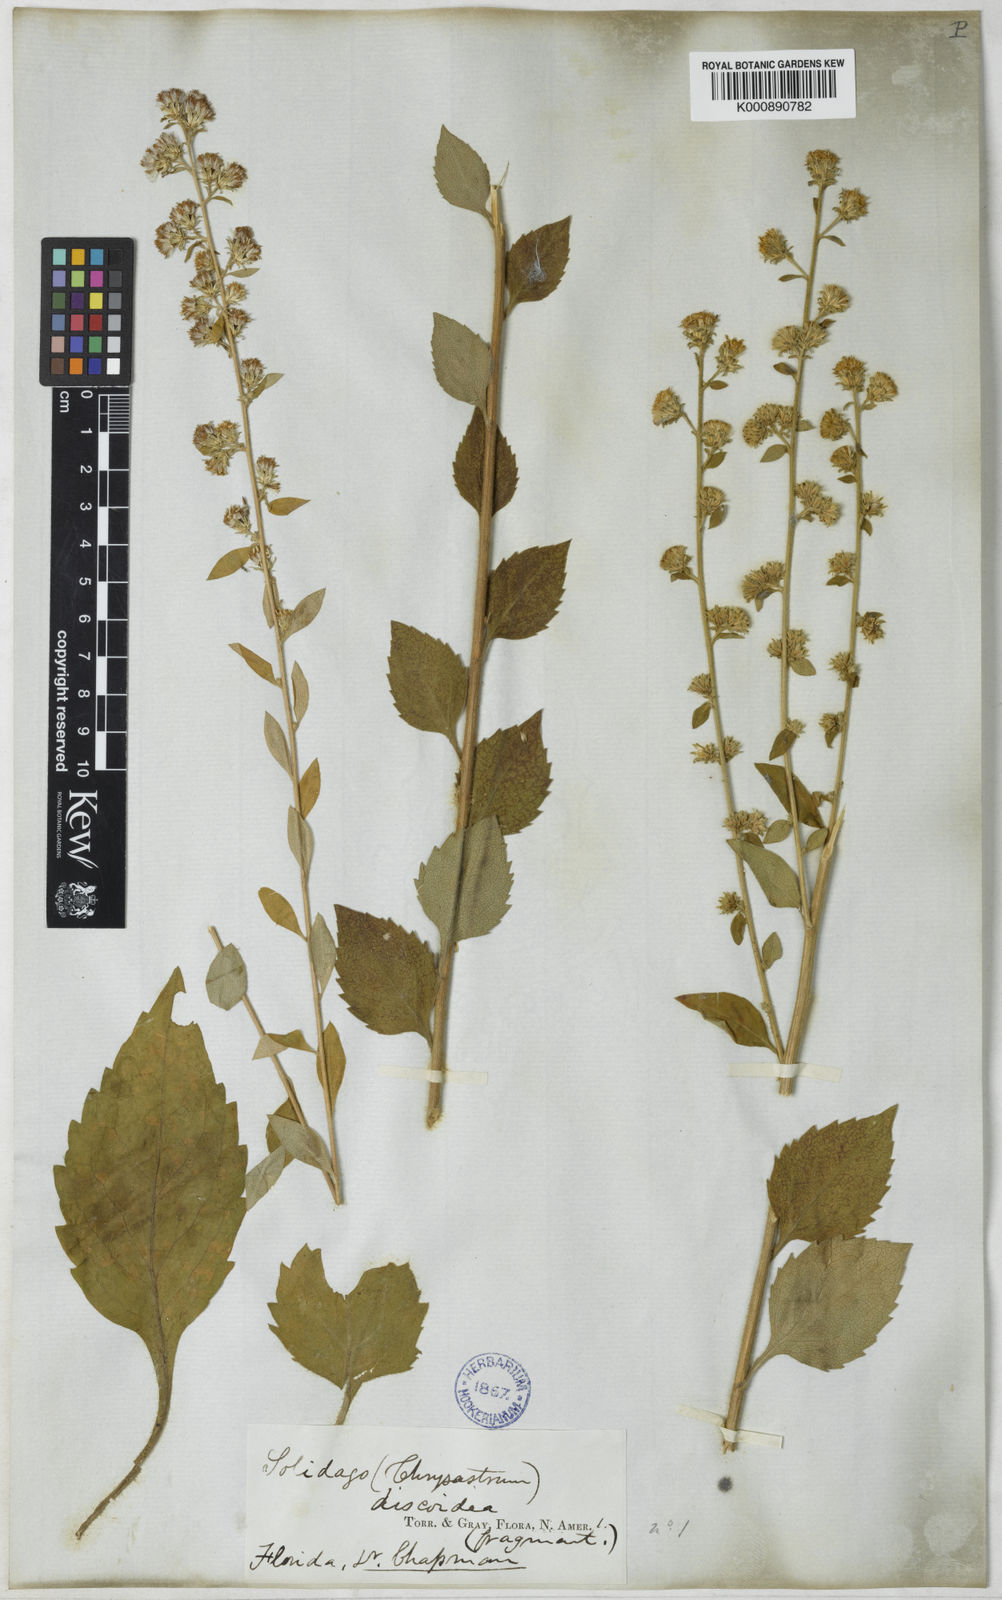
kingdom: Plantae
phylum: Tracheophyta
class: Magnoliopsida
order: Asterales
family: Asteraceae
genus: Solidago
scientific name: Solidago discoidea
